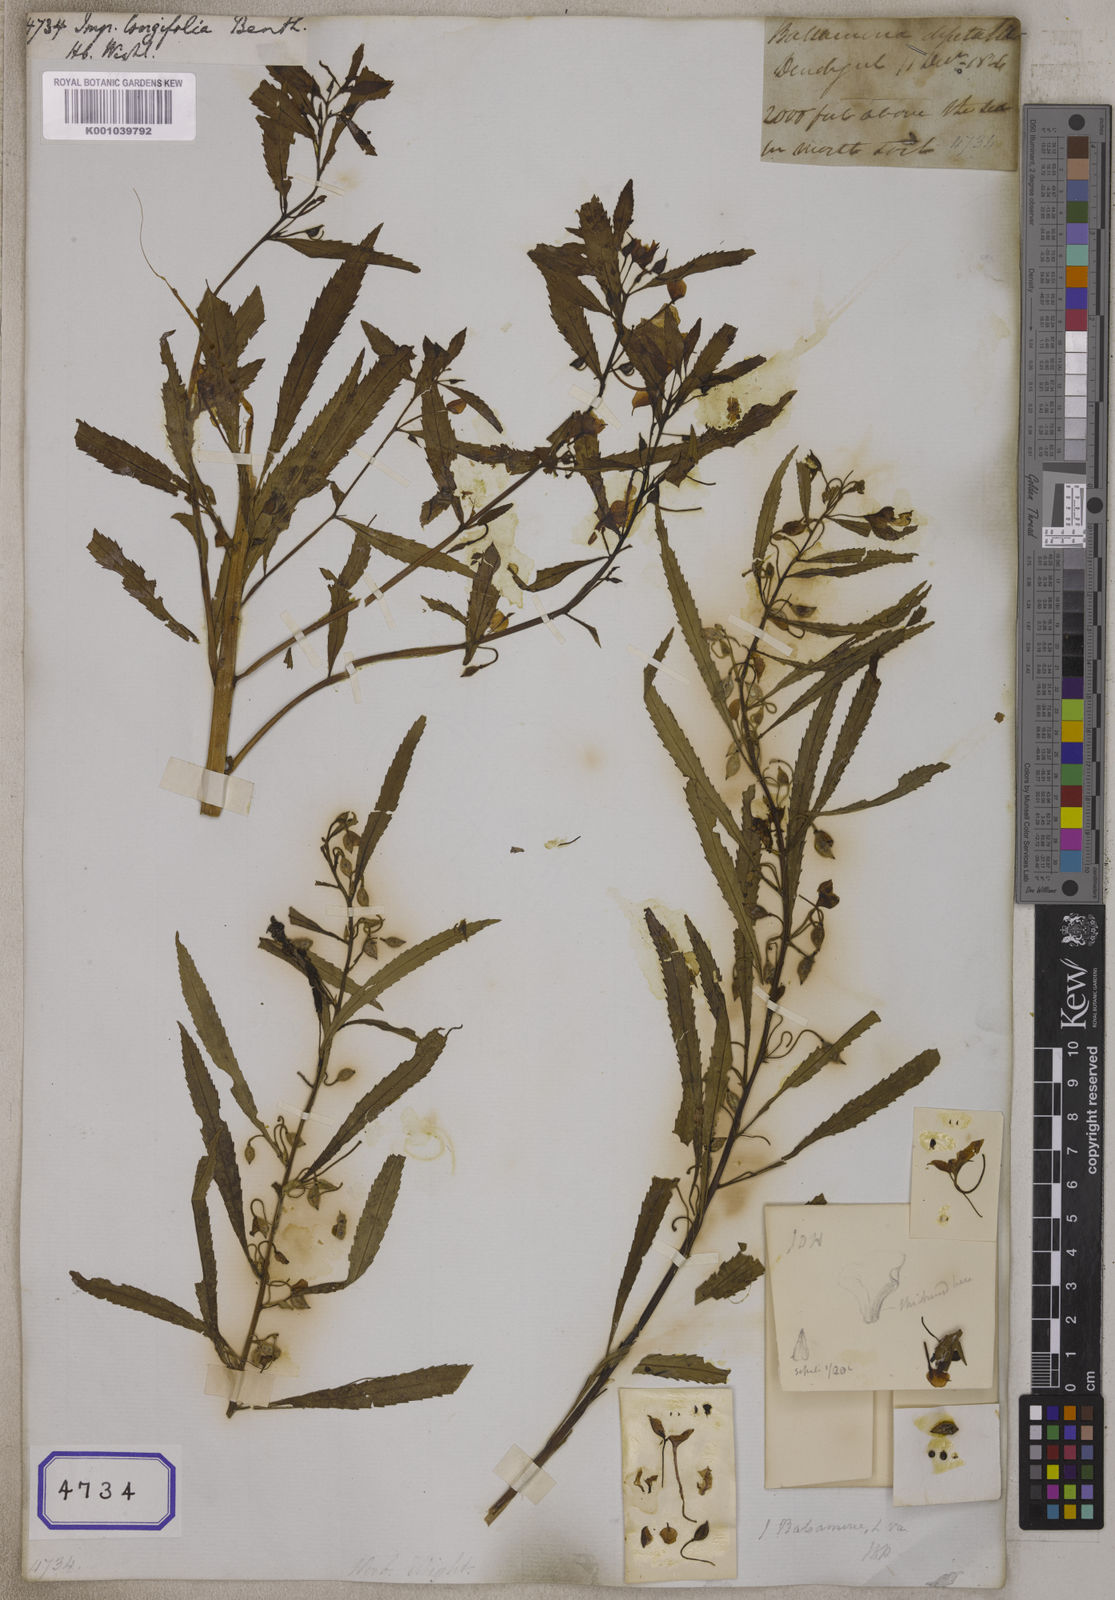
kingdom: Plantae
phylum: Tracheophyta
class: Magnoliopsida
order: Ericales
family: Balsaminaceae
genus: Impatiens
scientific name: Impatiens balsamina
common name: Balsam
